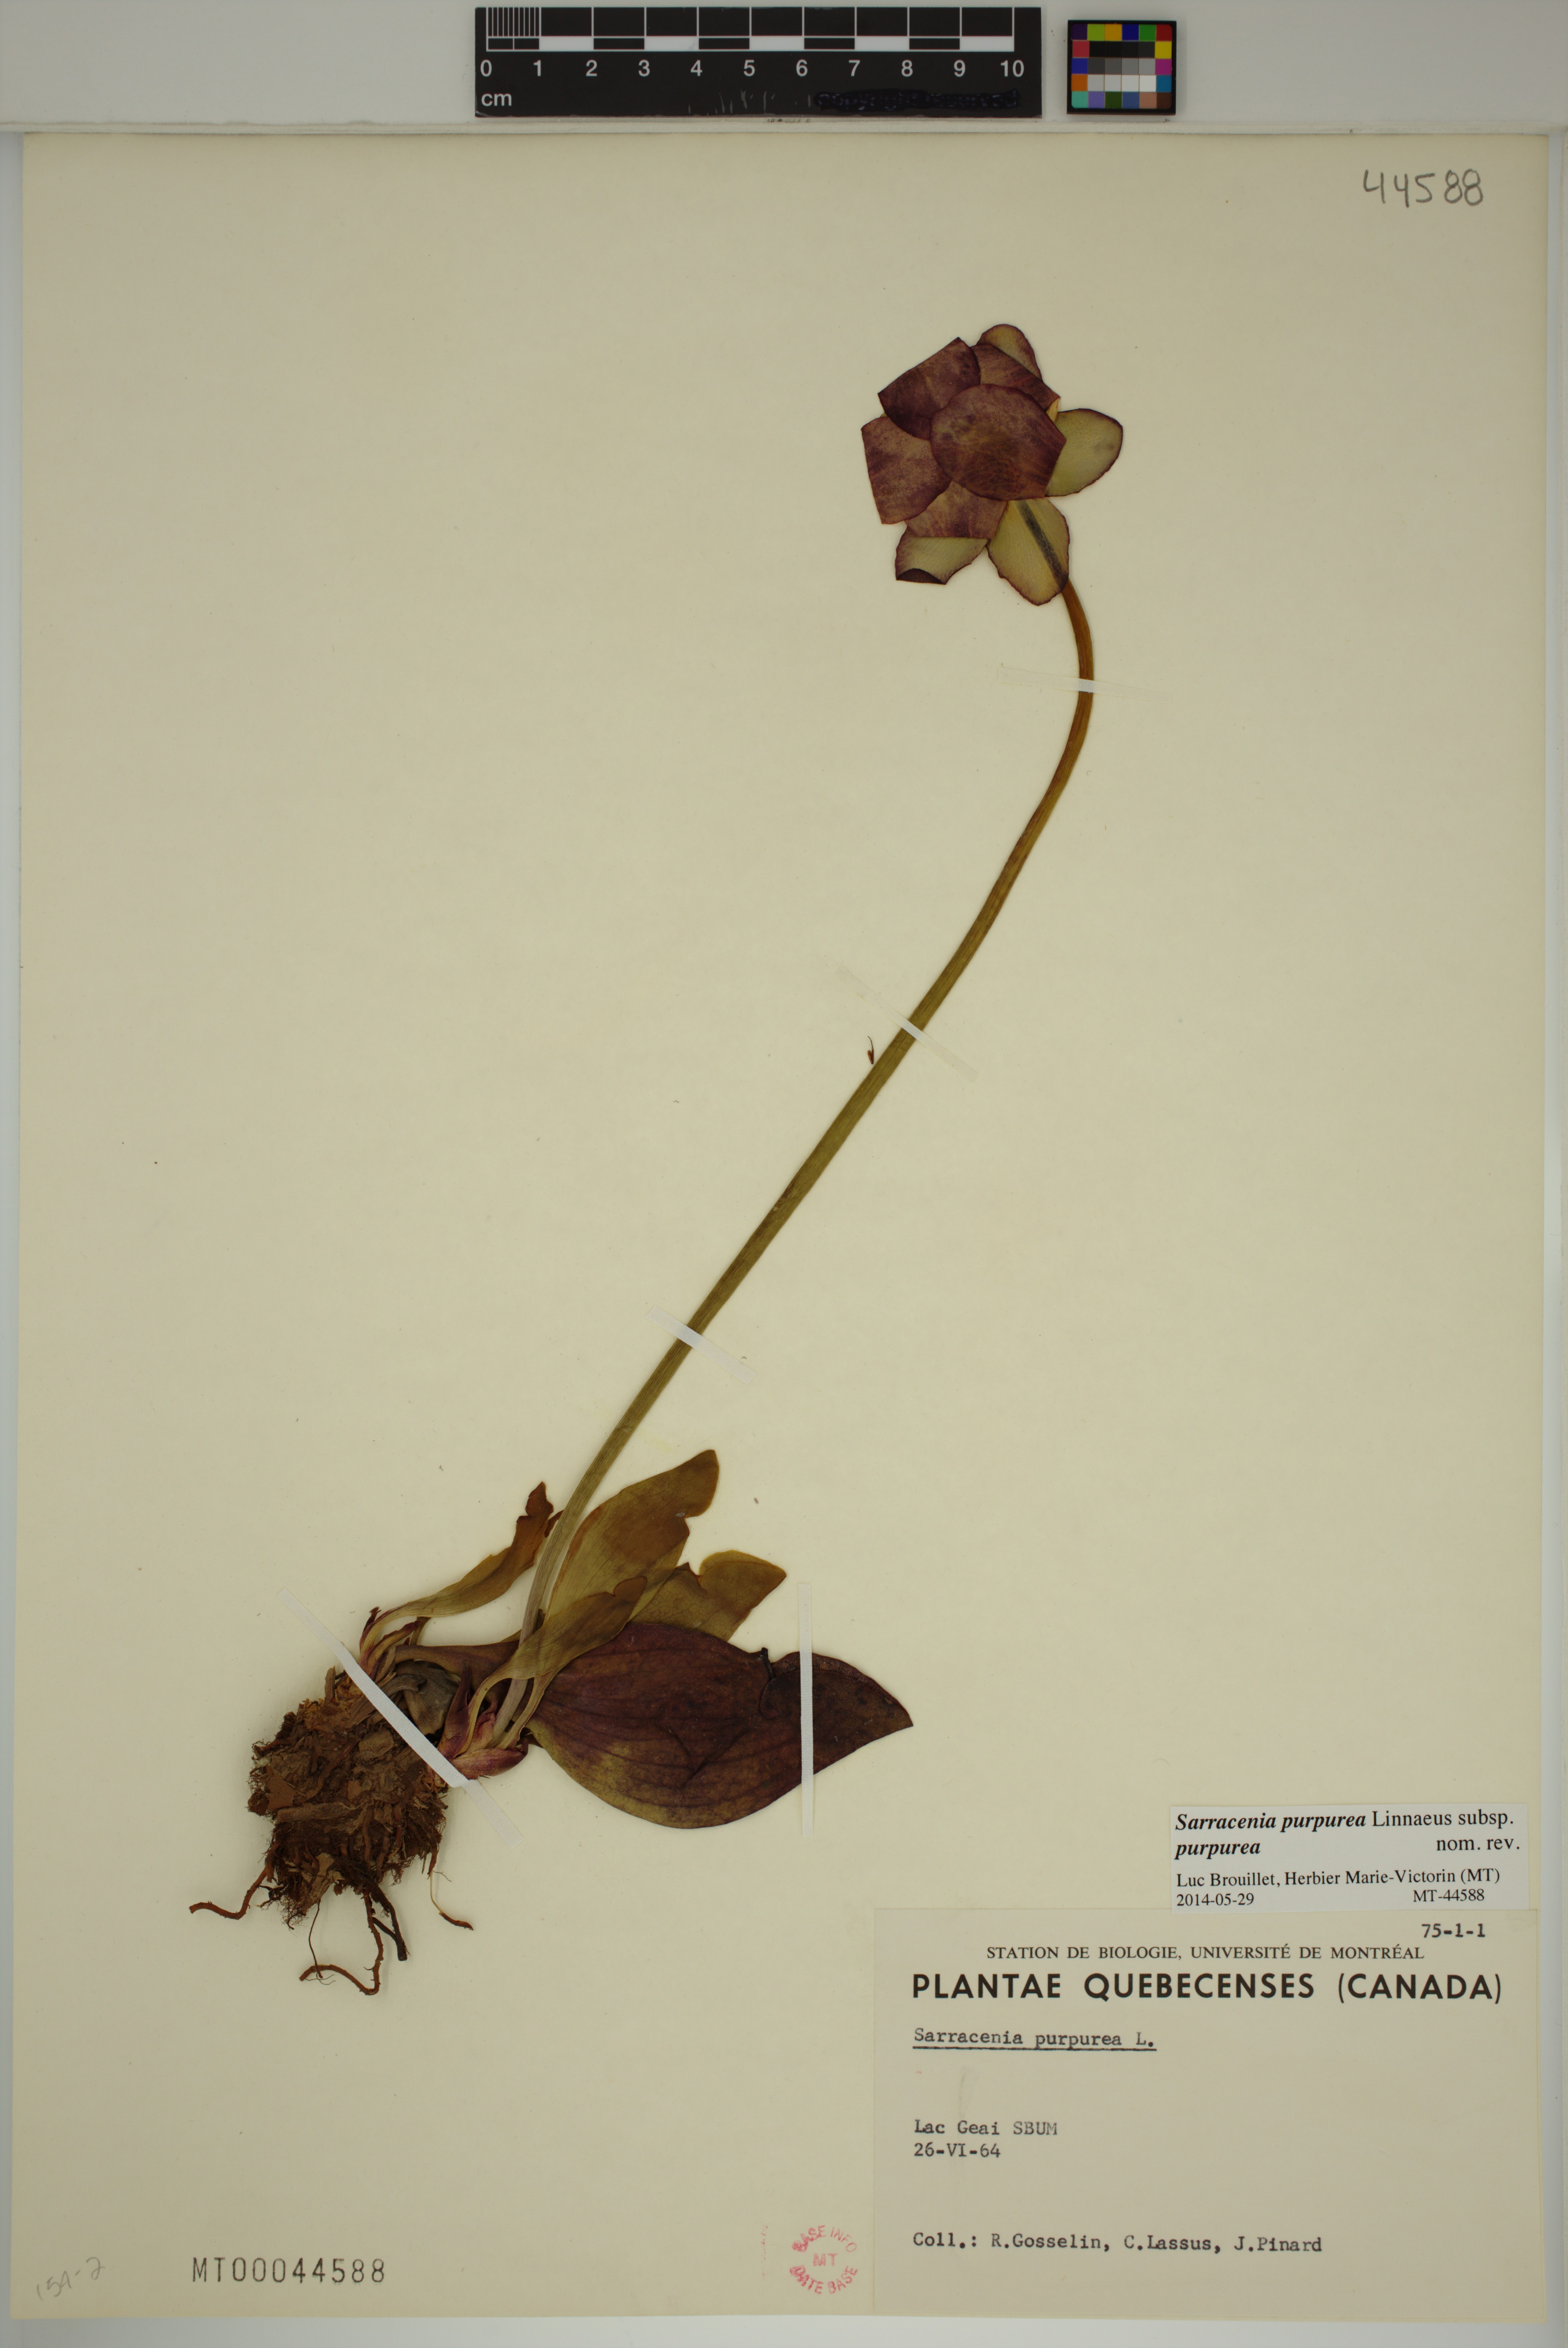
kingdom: Plantae
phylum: Tracheophyta
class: Magnoliopsida
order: Ericales
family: Sarraceniaceae
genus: Sarracenia
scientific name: Sarracenia purpurea
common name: Pitcherplant
